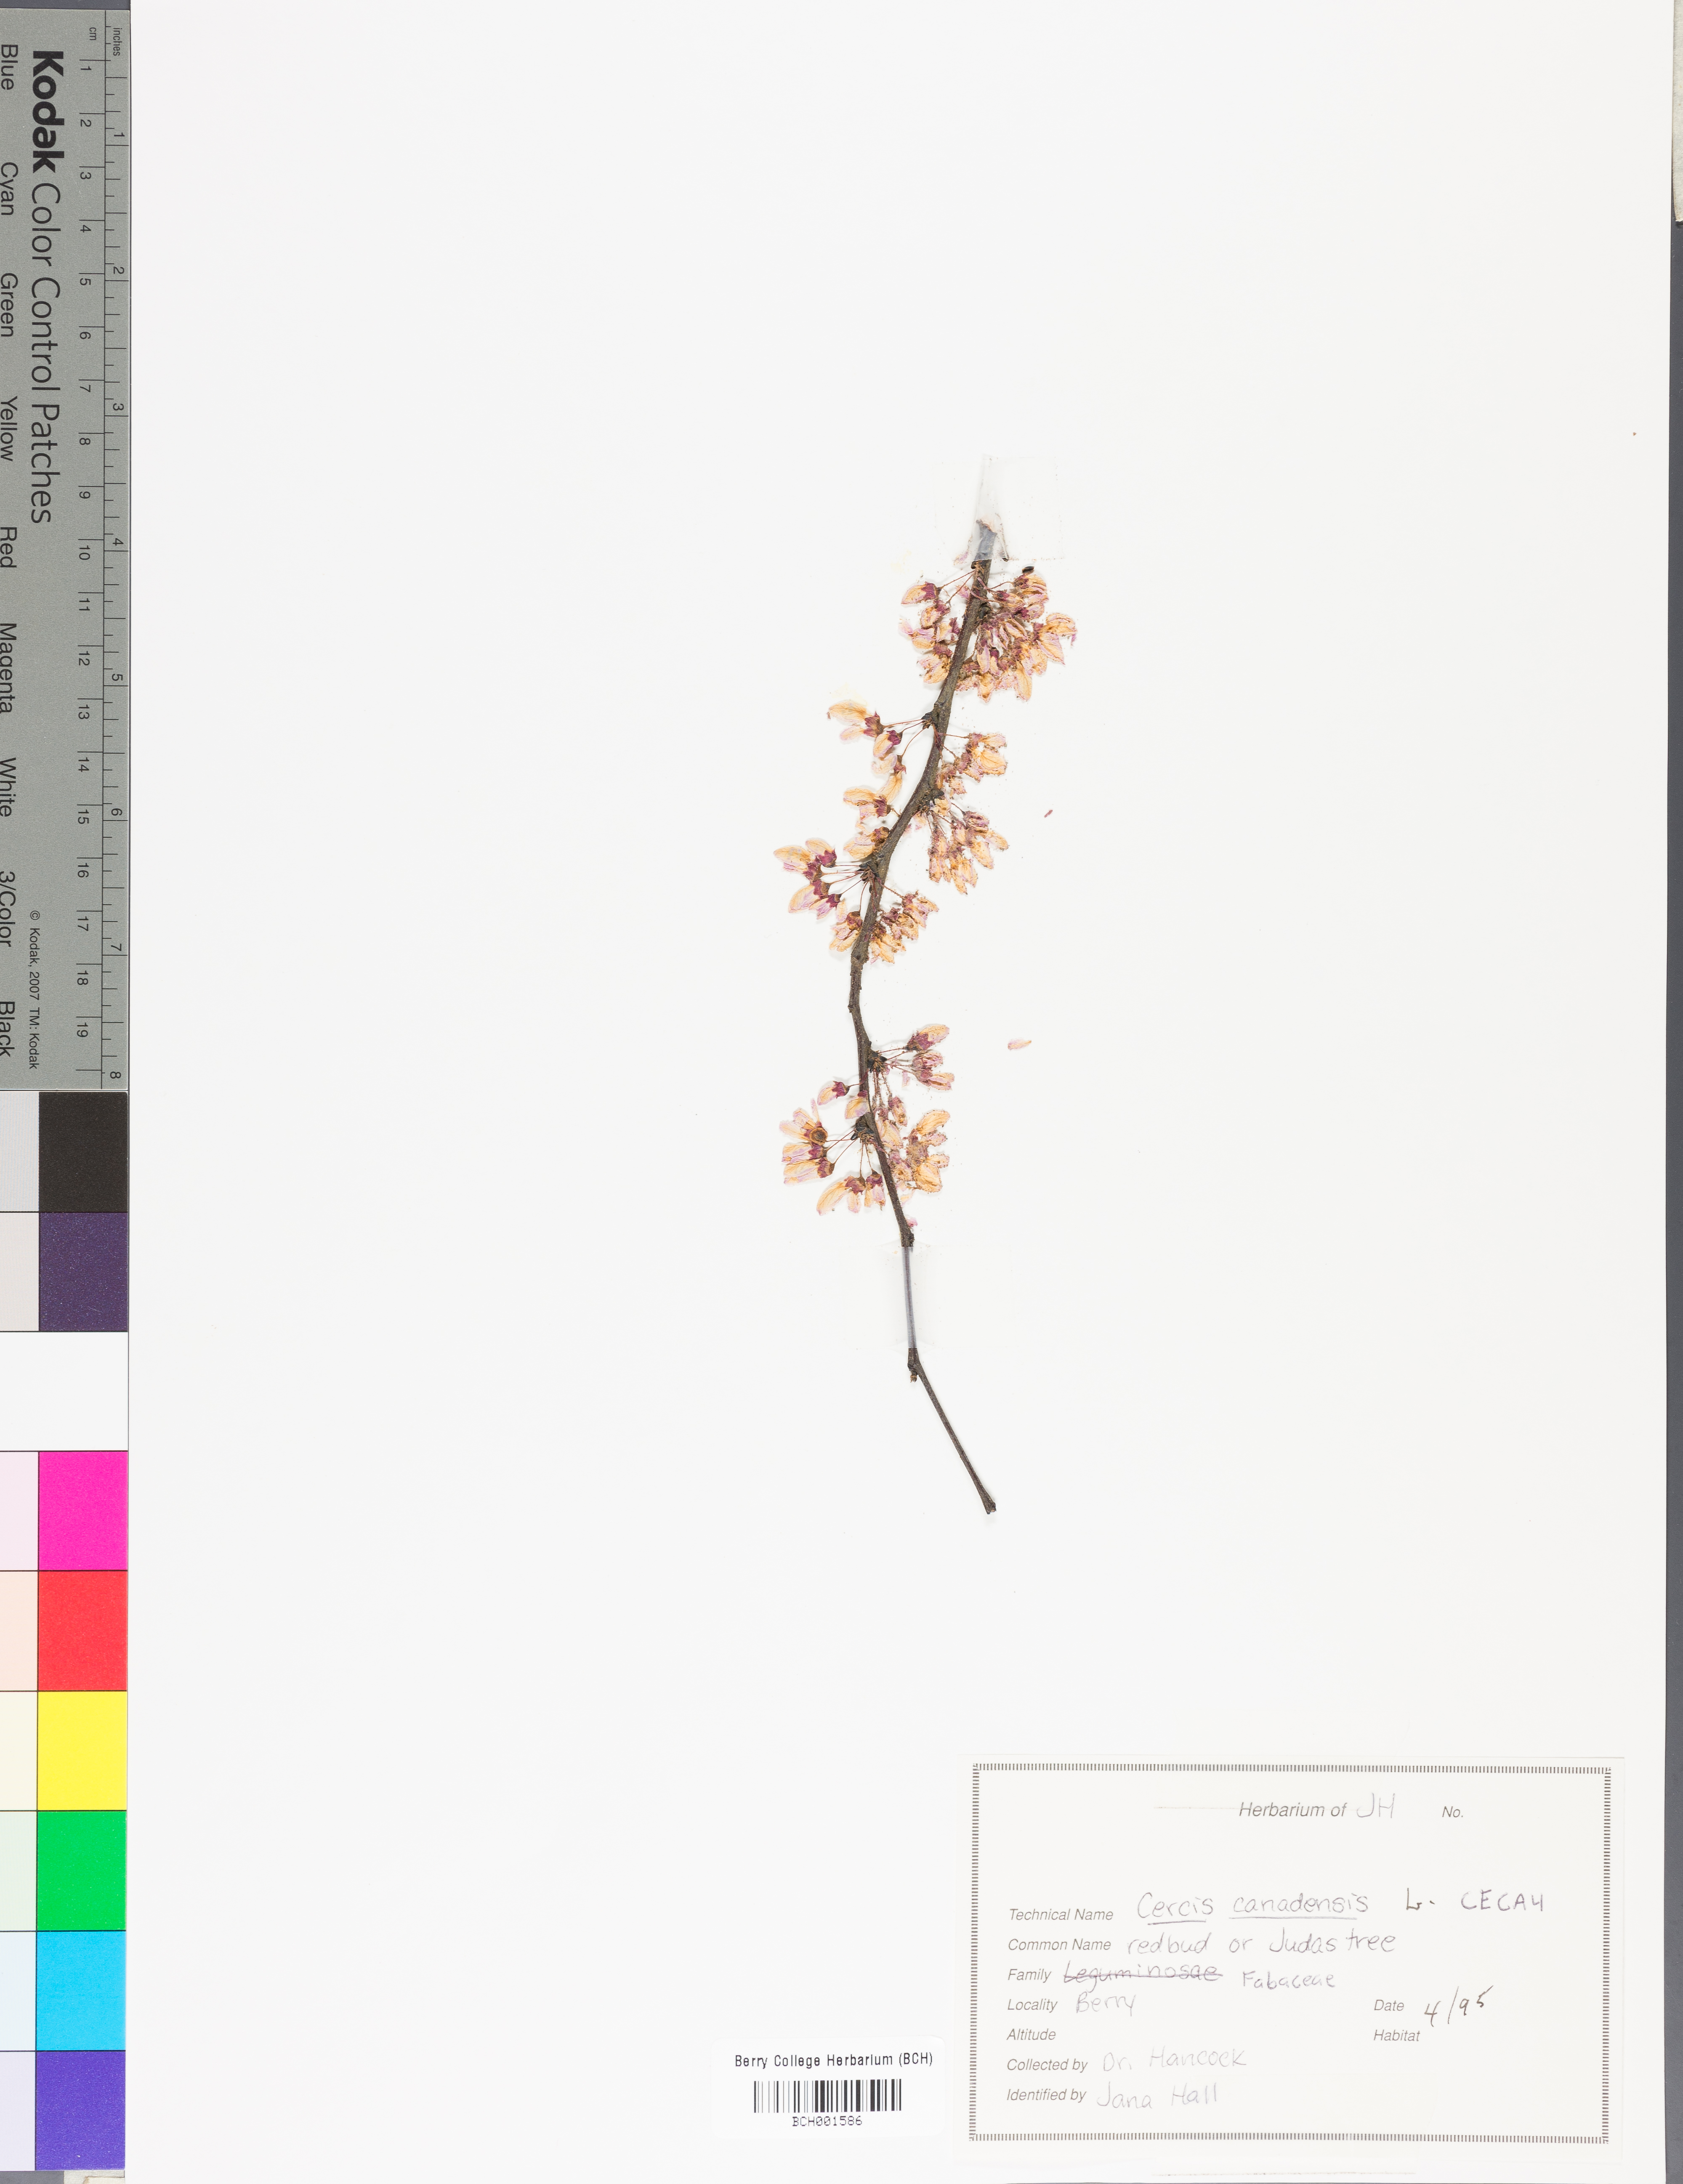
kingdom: Plantae
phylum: Tracheophyta
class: Magnoliopsida
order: Fabales
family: Fabaceae
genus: Cercis
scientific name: Cercis canadensis
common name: Eastern redbud
